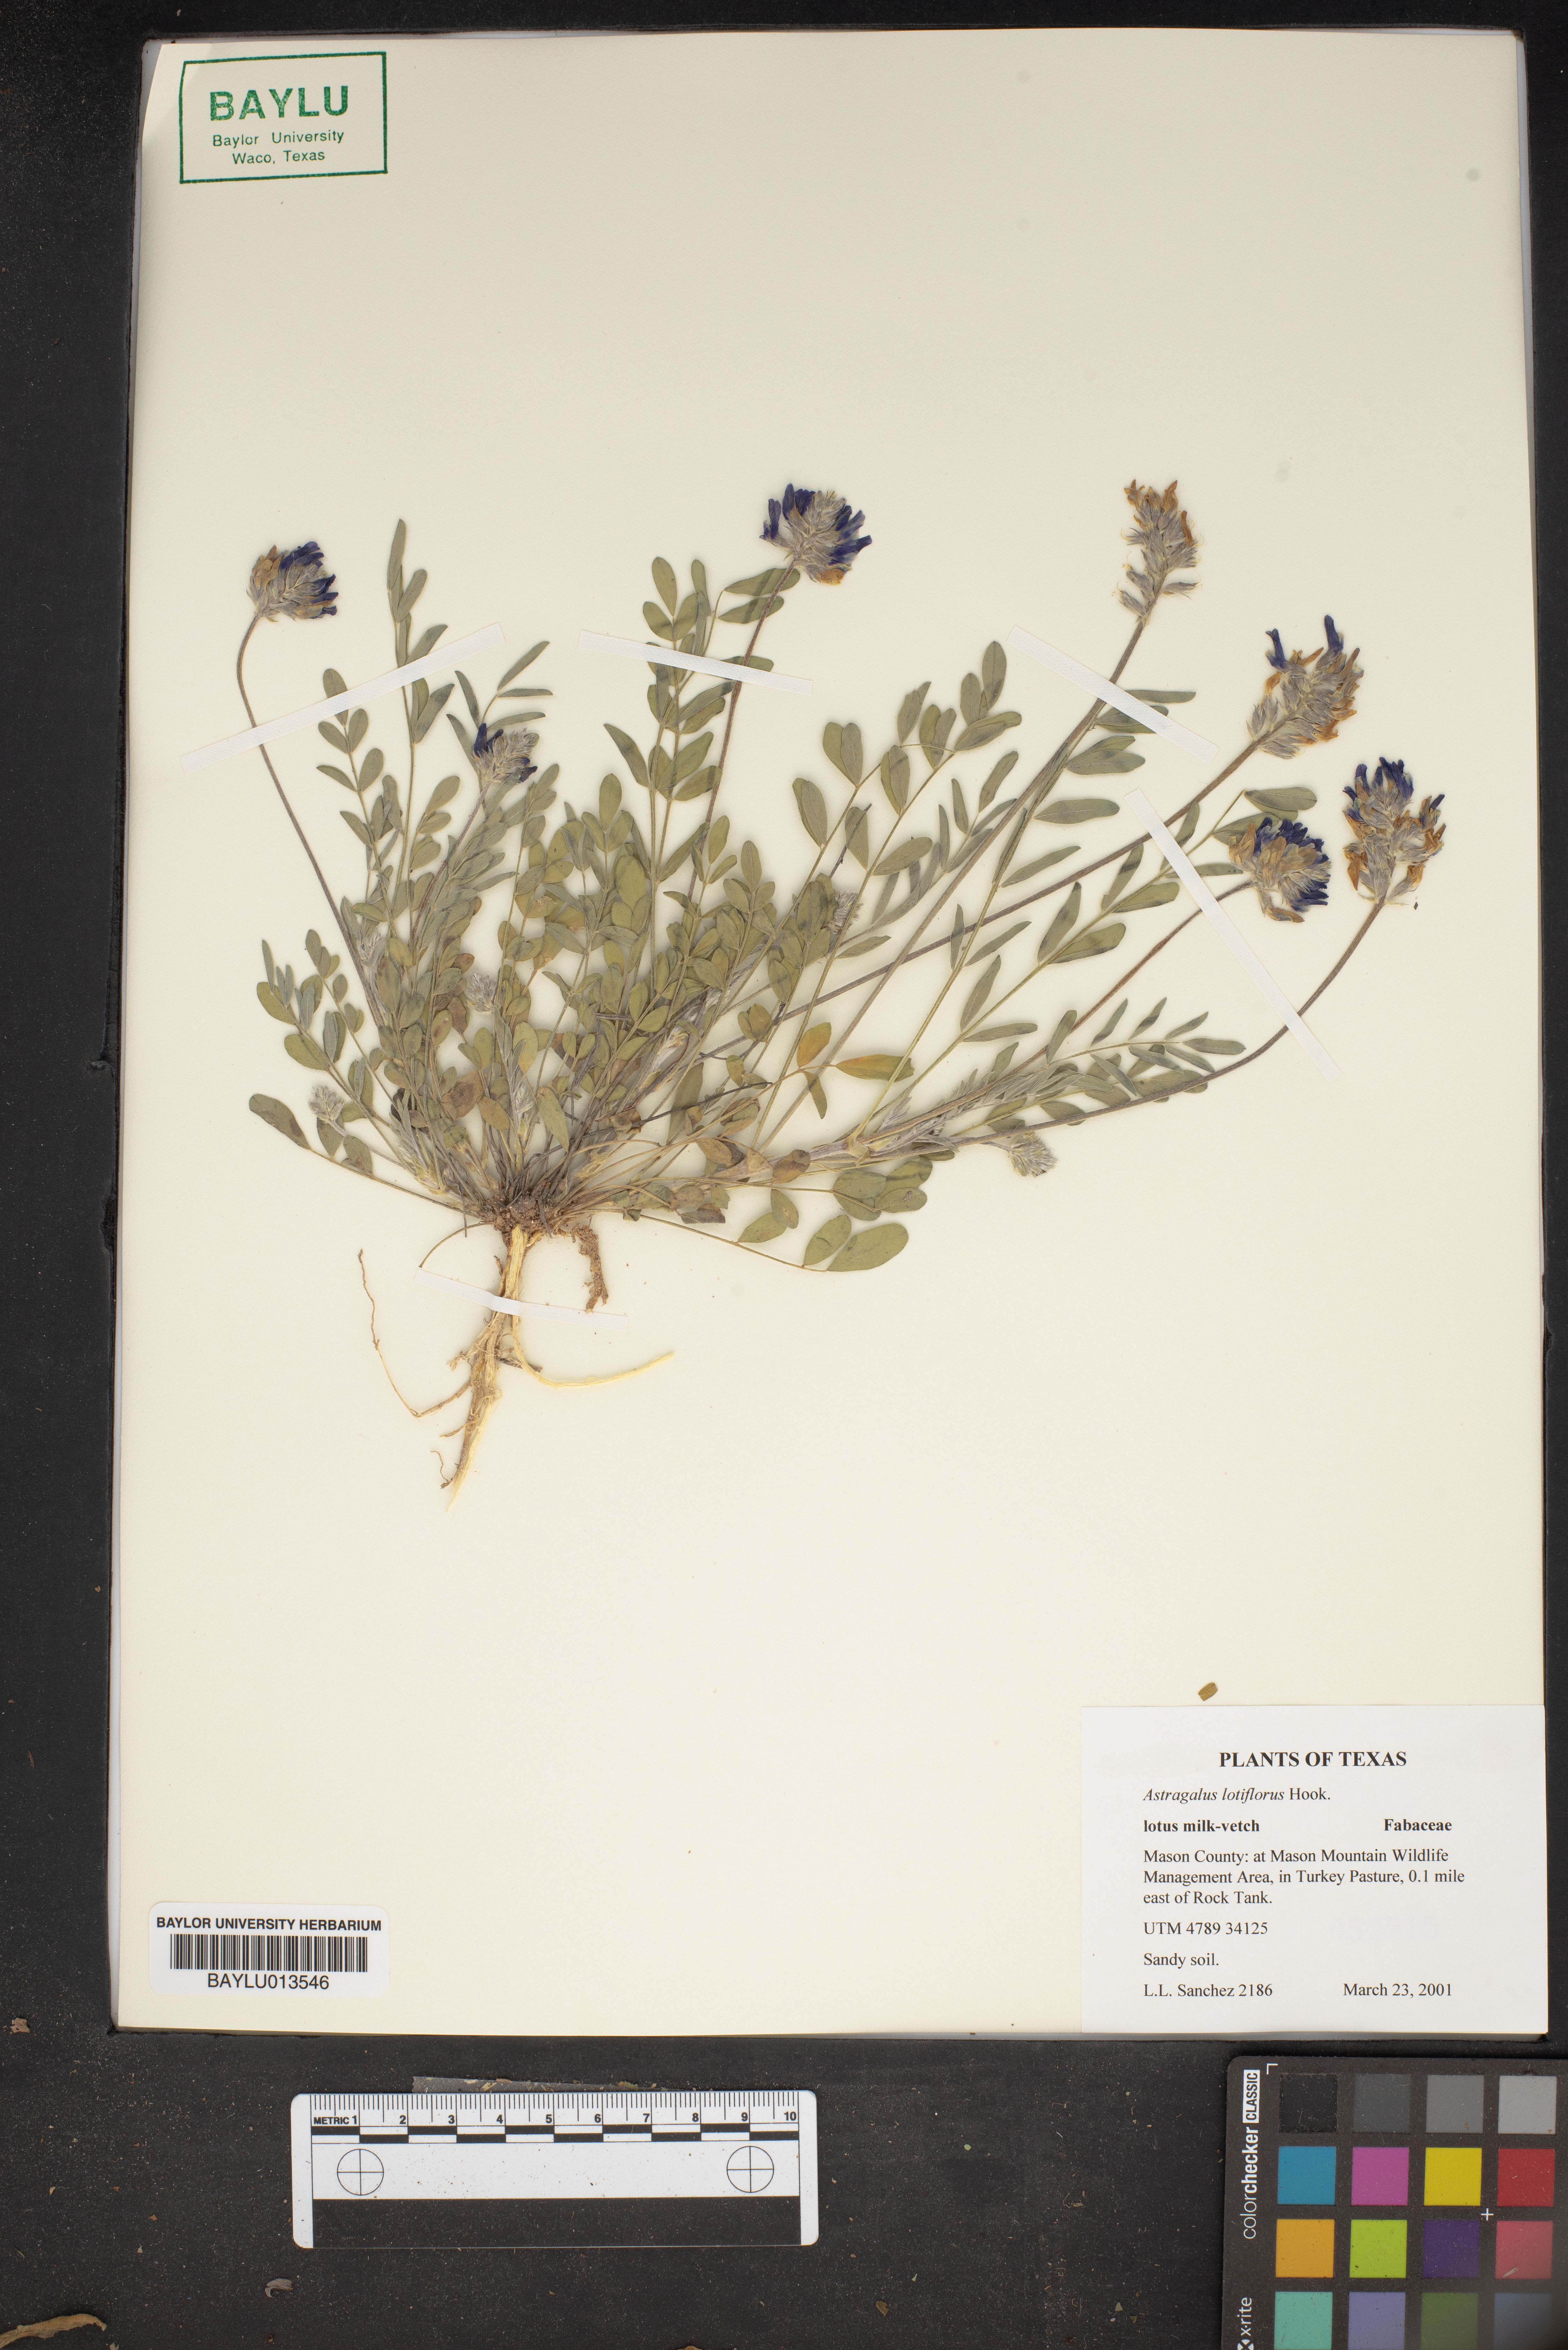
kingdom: Plantae
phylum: Tracheophyta
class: Magnoliopsida
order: Fabales
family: Fabaceae
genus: Astragalus
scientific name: Astragalus lotiflorus
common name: Lotus milk-vetch
